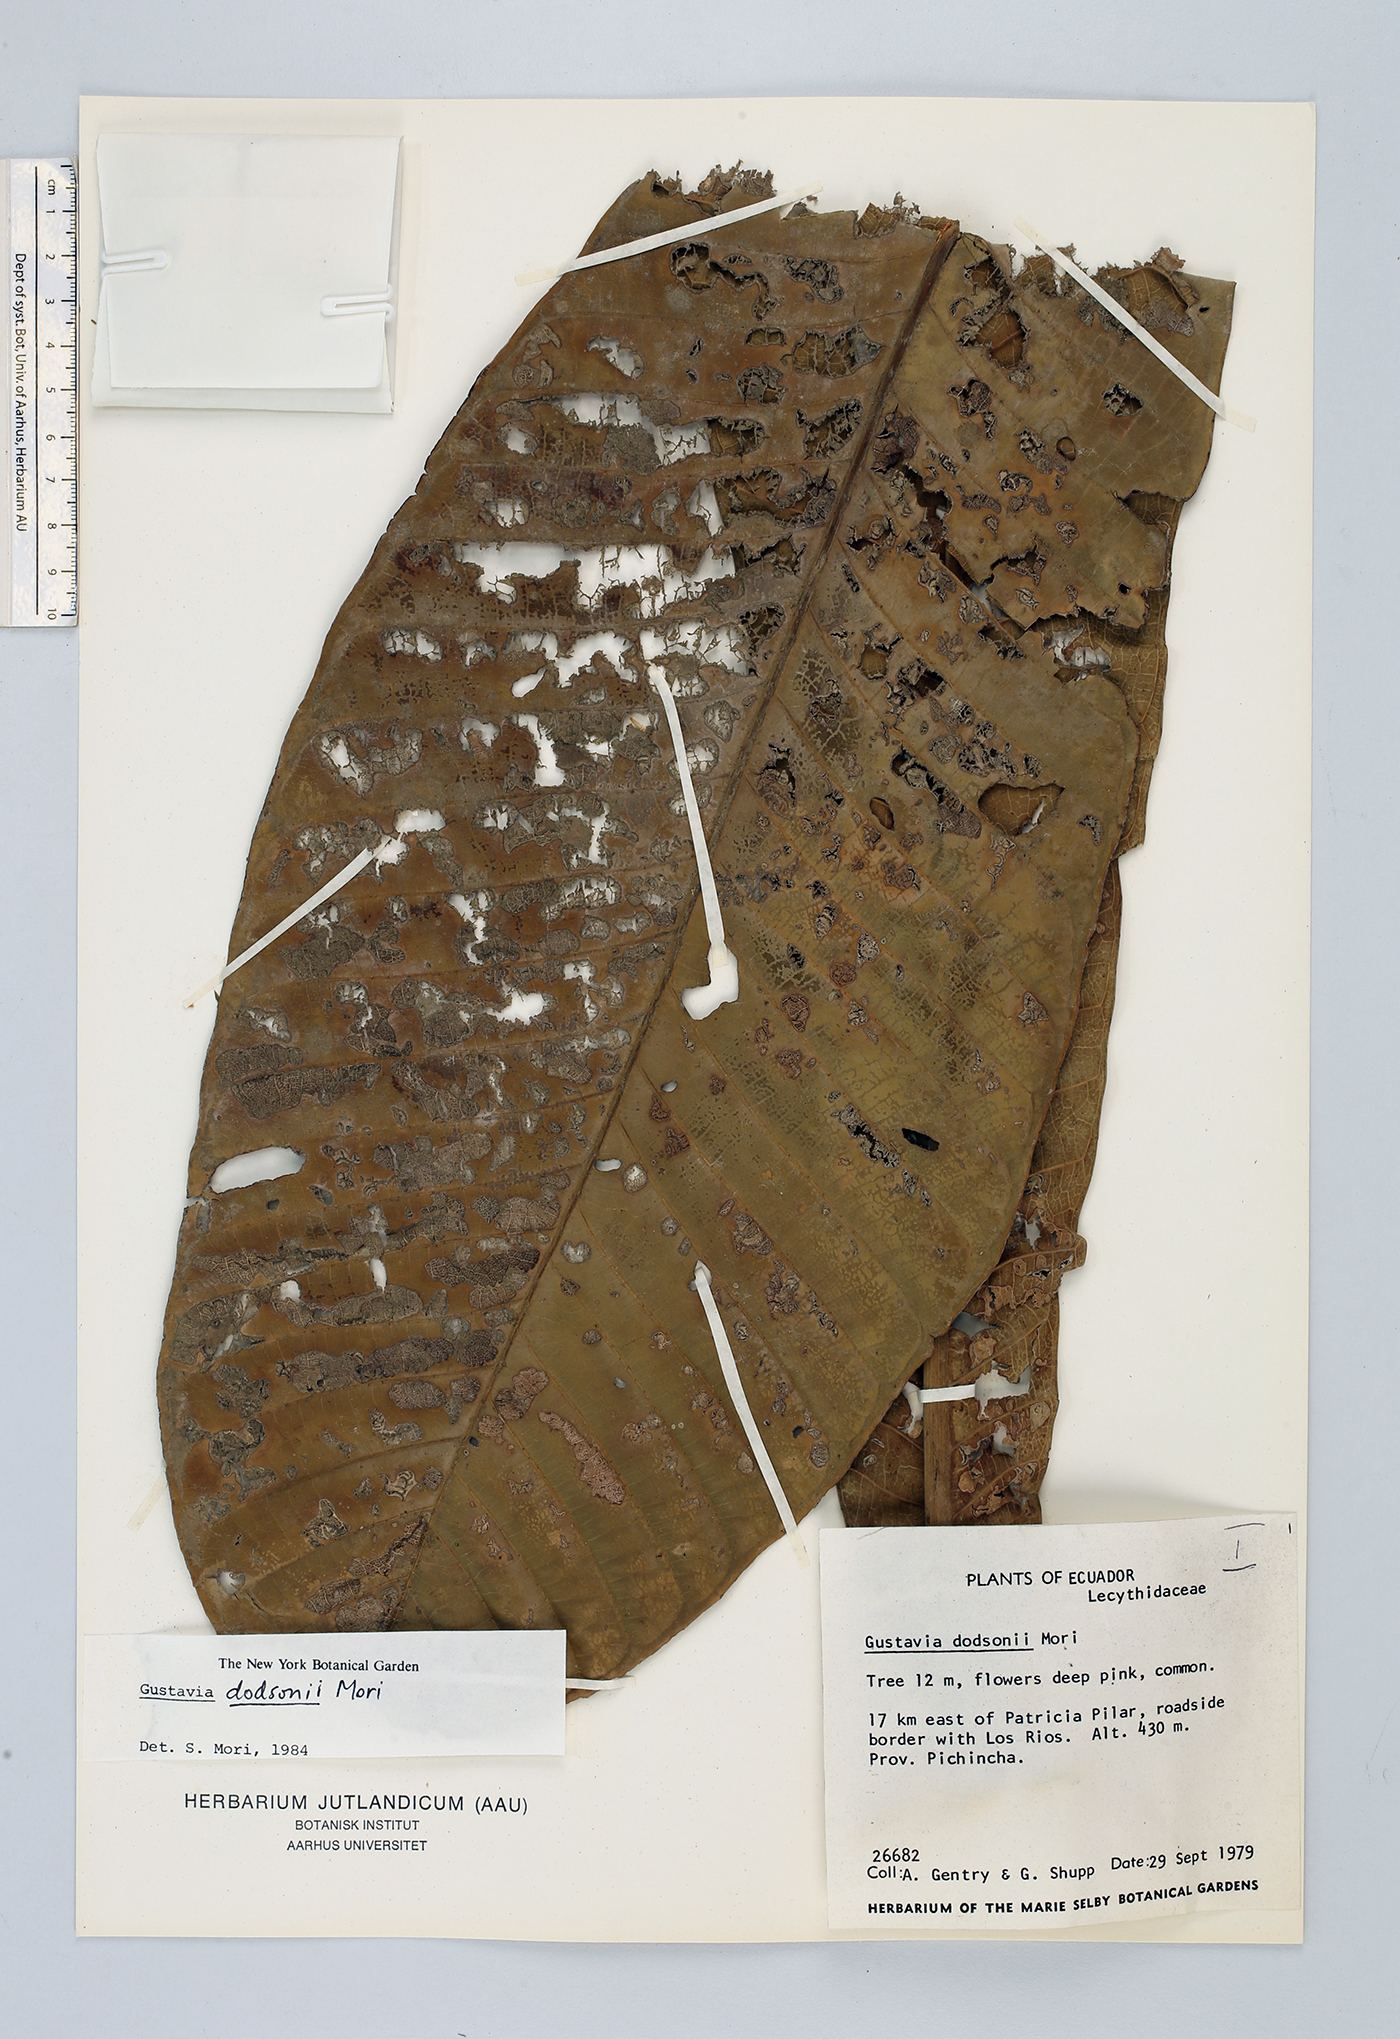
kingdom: Plantae
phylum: Tracheophyta
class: Magnoliopsida
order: Ericales
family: Lecythidaceae
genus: Gustavia
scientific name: Gustavia dodsonii
